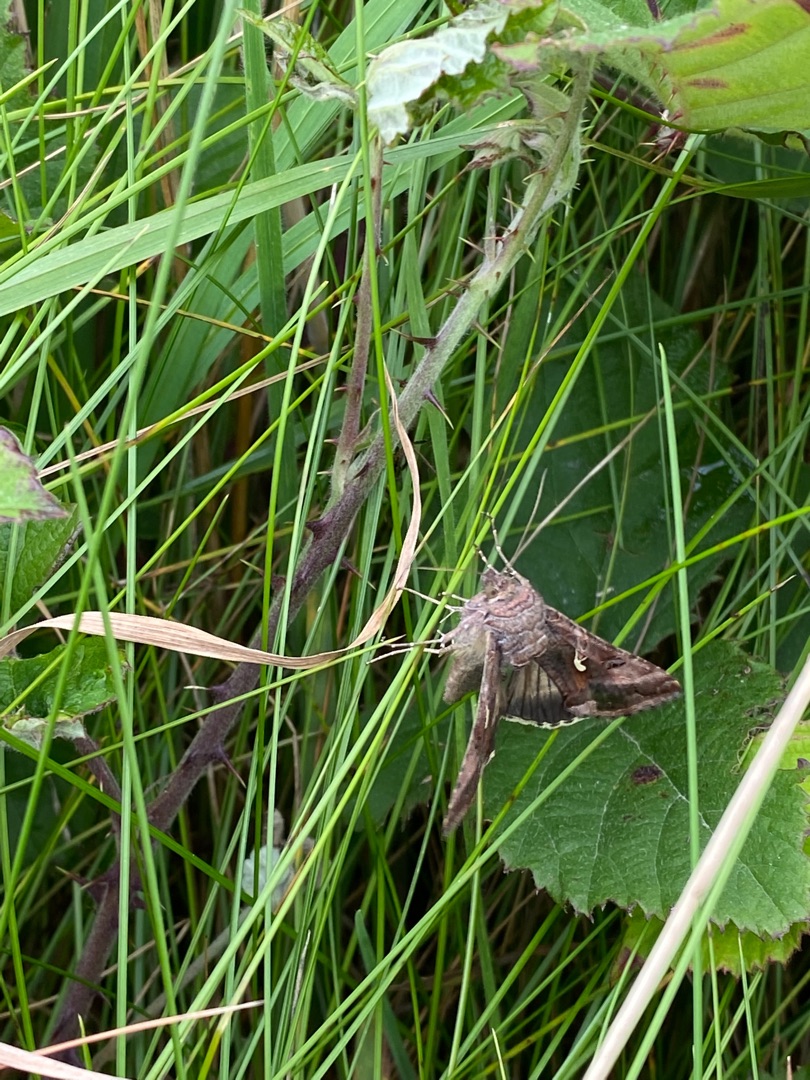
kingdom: Animalia
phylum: Arthropoda
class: Insecta
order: Lepidoptera
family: Noctuidae
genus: Autographa
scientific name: Autographa gamma
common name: Gammaugle
